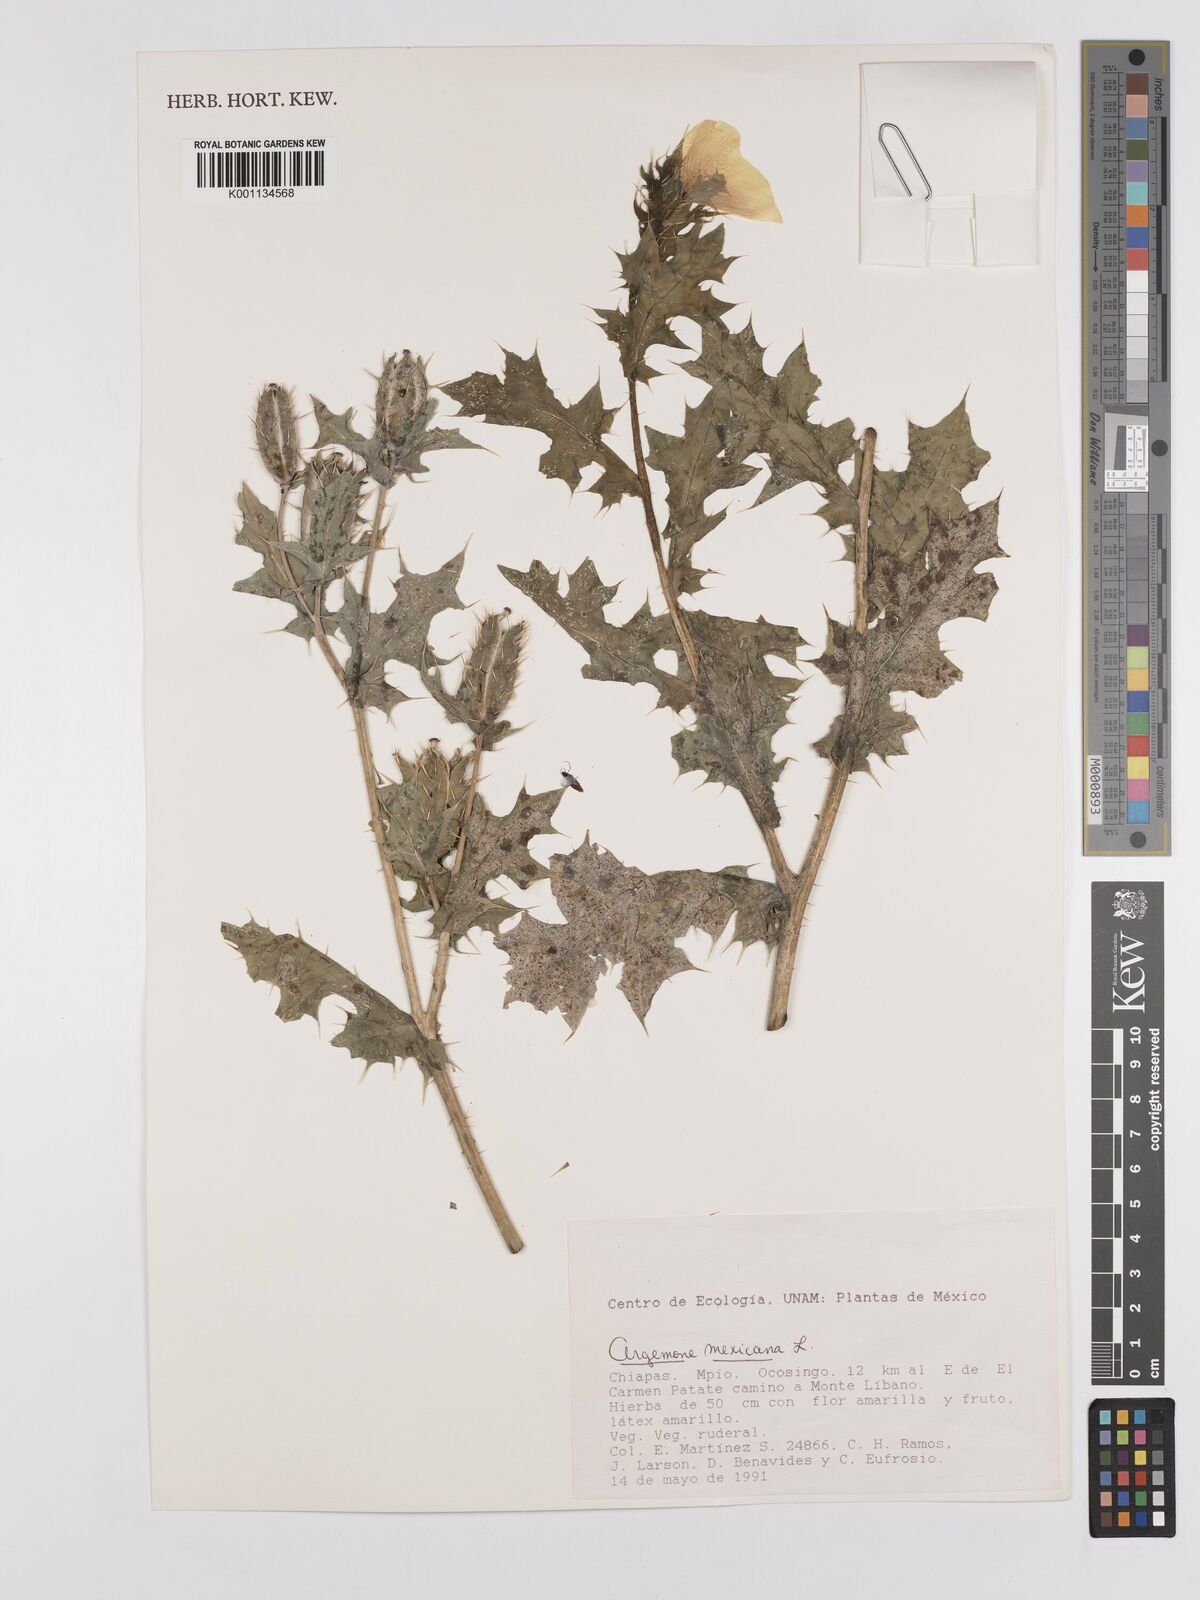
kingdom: Plantae
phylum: Tracheophyta
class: Magnoliopsida
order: Ranunculales
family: Papaveraceae
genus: Argemone
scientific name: Argemone mexicana
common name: Mexican poppy
